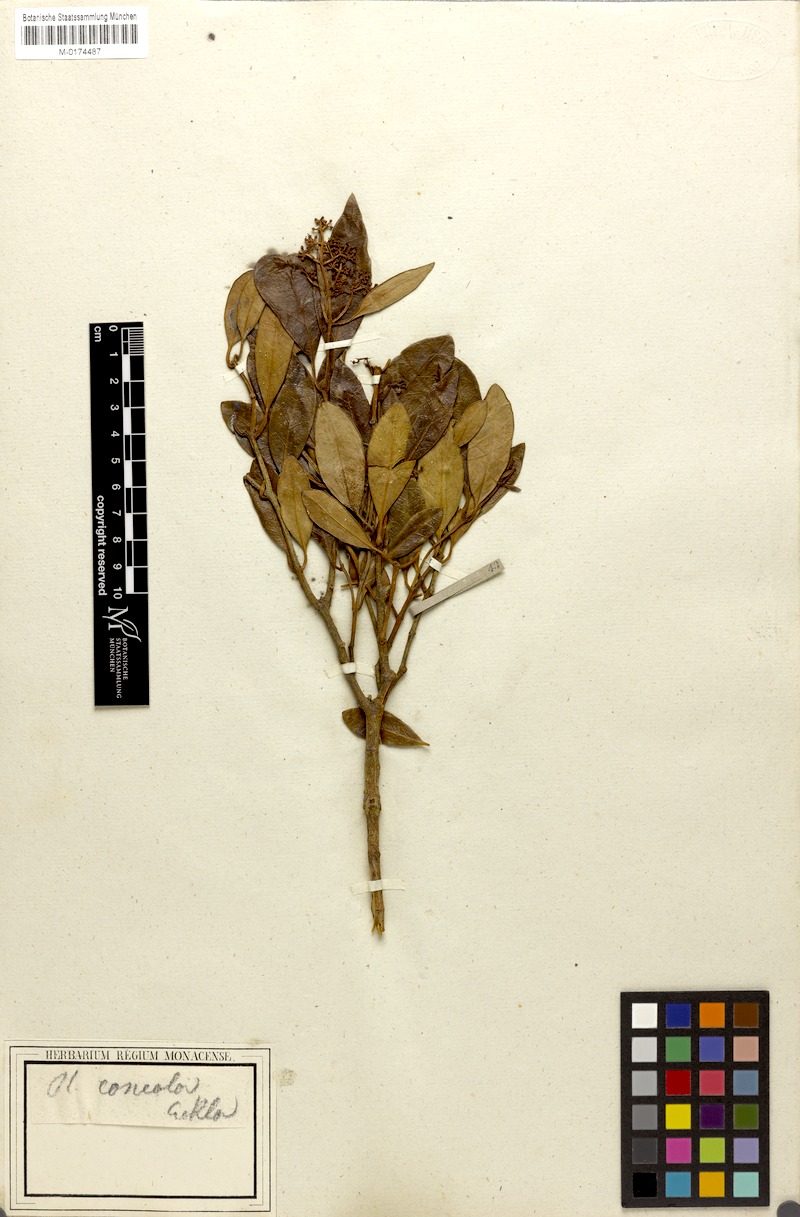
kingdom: Plantae
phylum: Tracheophyta
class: Magnoliopsida
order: Lamiales
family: Oleaceae
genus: Olea
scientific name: Olea capensis
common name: Black ironwood
